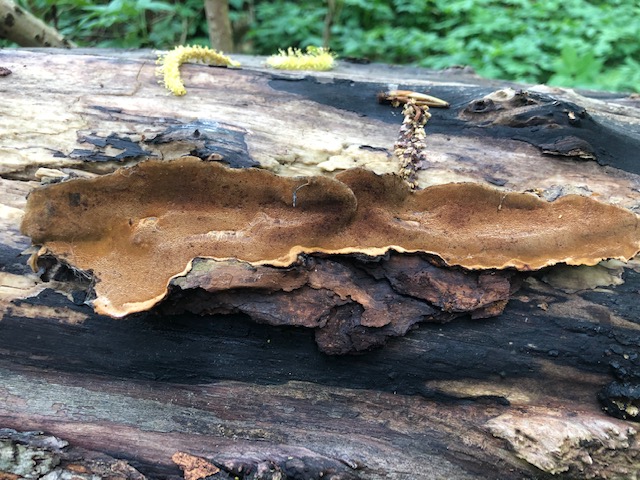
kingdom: Fungi
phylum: Basidiomycota
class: Agaricomycetes
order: Hymenochaetales
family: Hymenochaetaceae
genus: Phellinopsis
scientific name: Phellinopsis conchata
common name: pile-ildporesvamp
